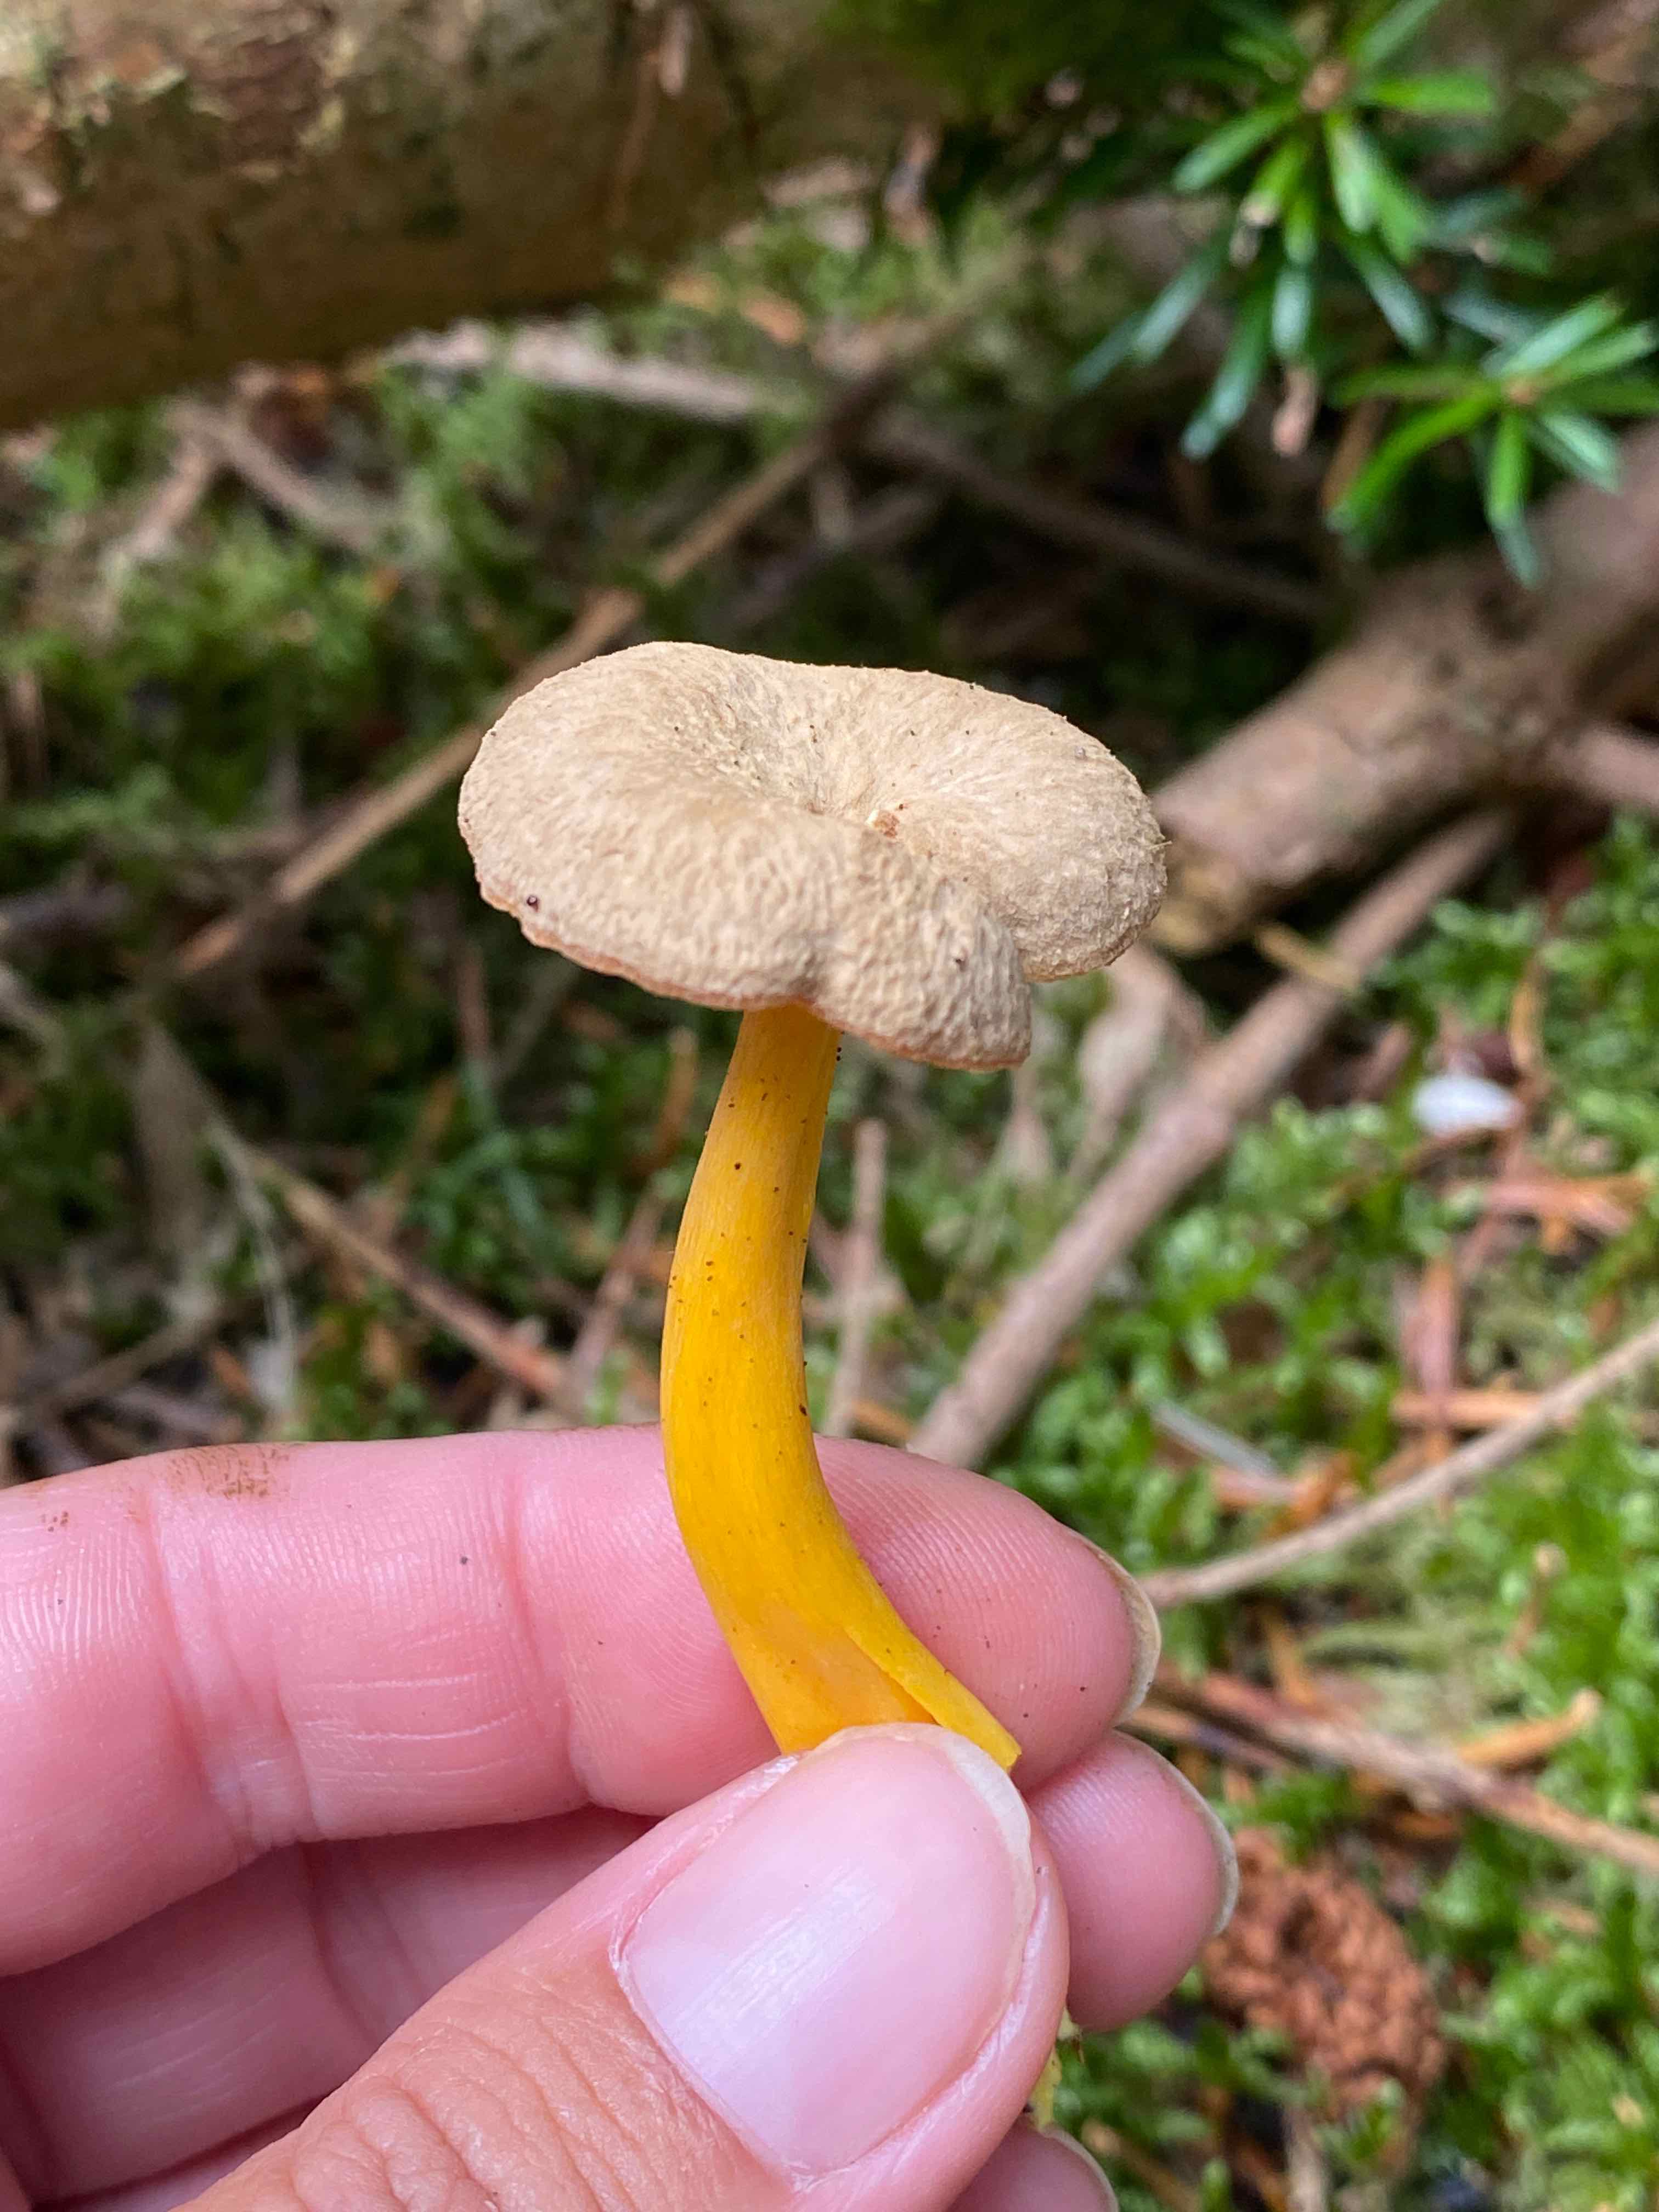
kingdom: Fungi
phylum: Basidiomycota
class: Agaricomycetes
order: Cantharellales
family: Hydnaceae
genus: Craterellus
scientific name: Craterellus tubaeformis
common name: tragt-kantarel
